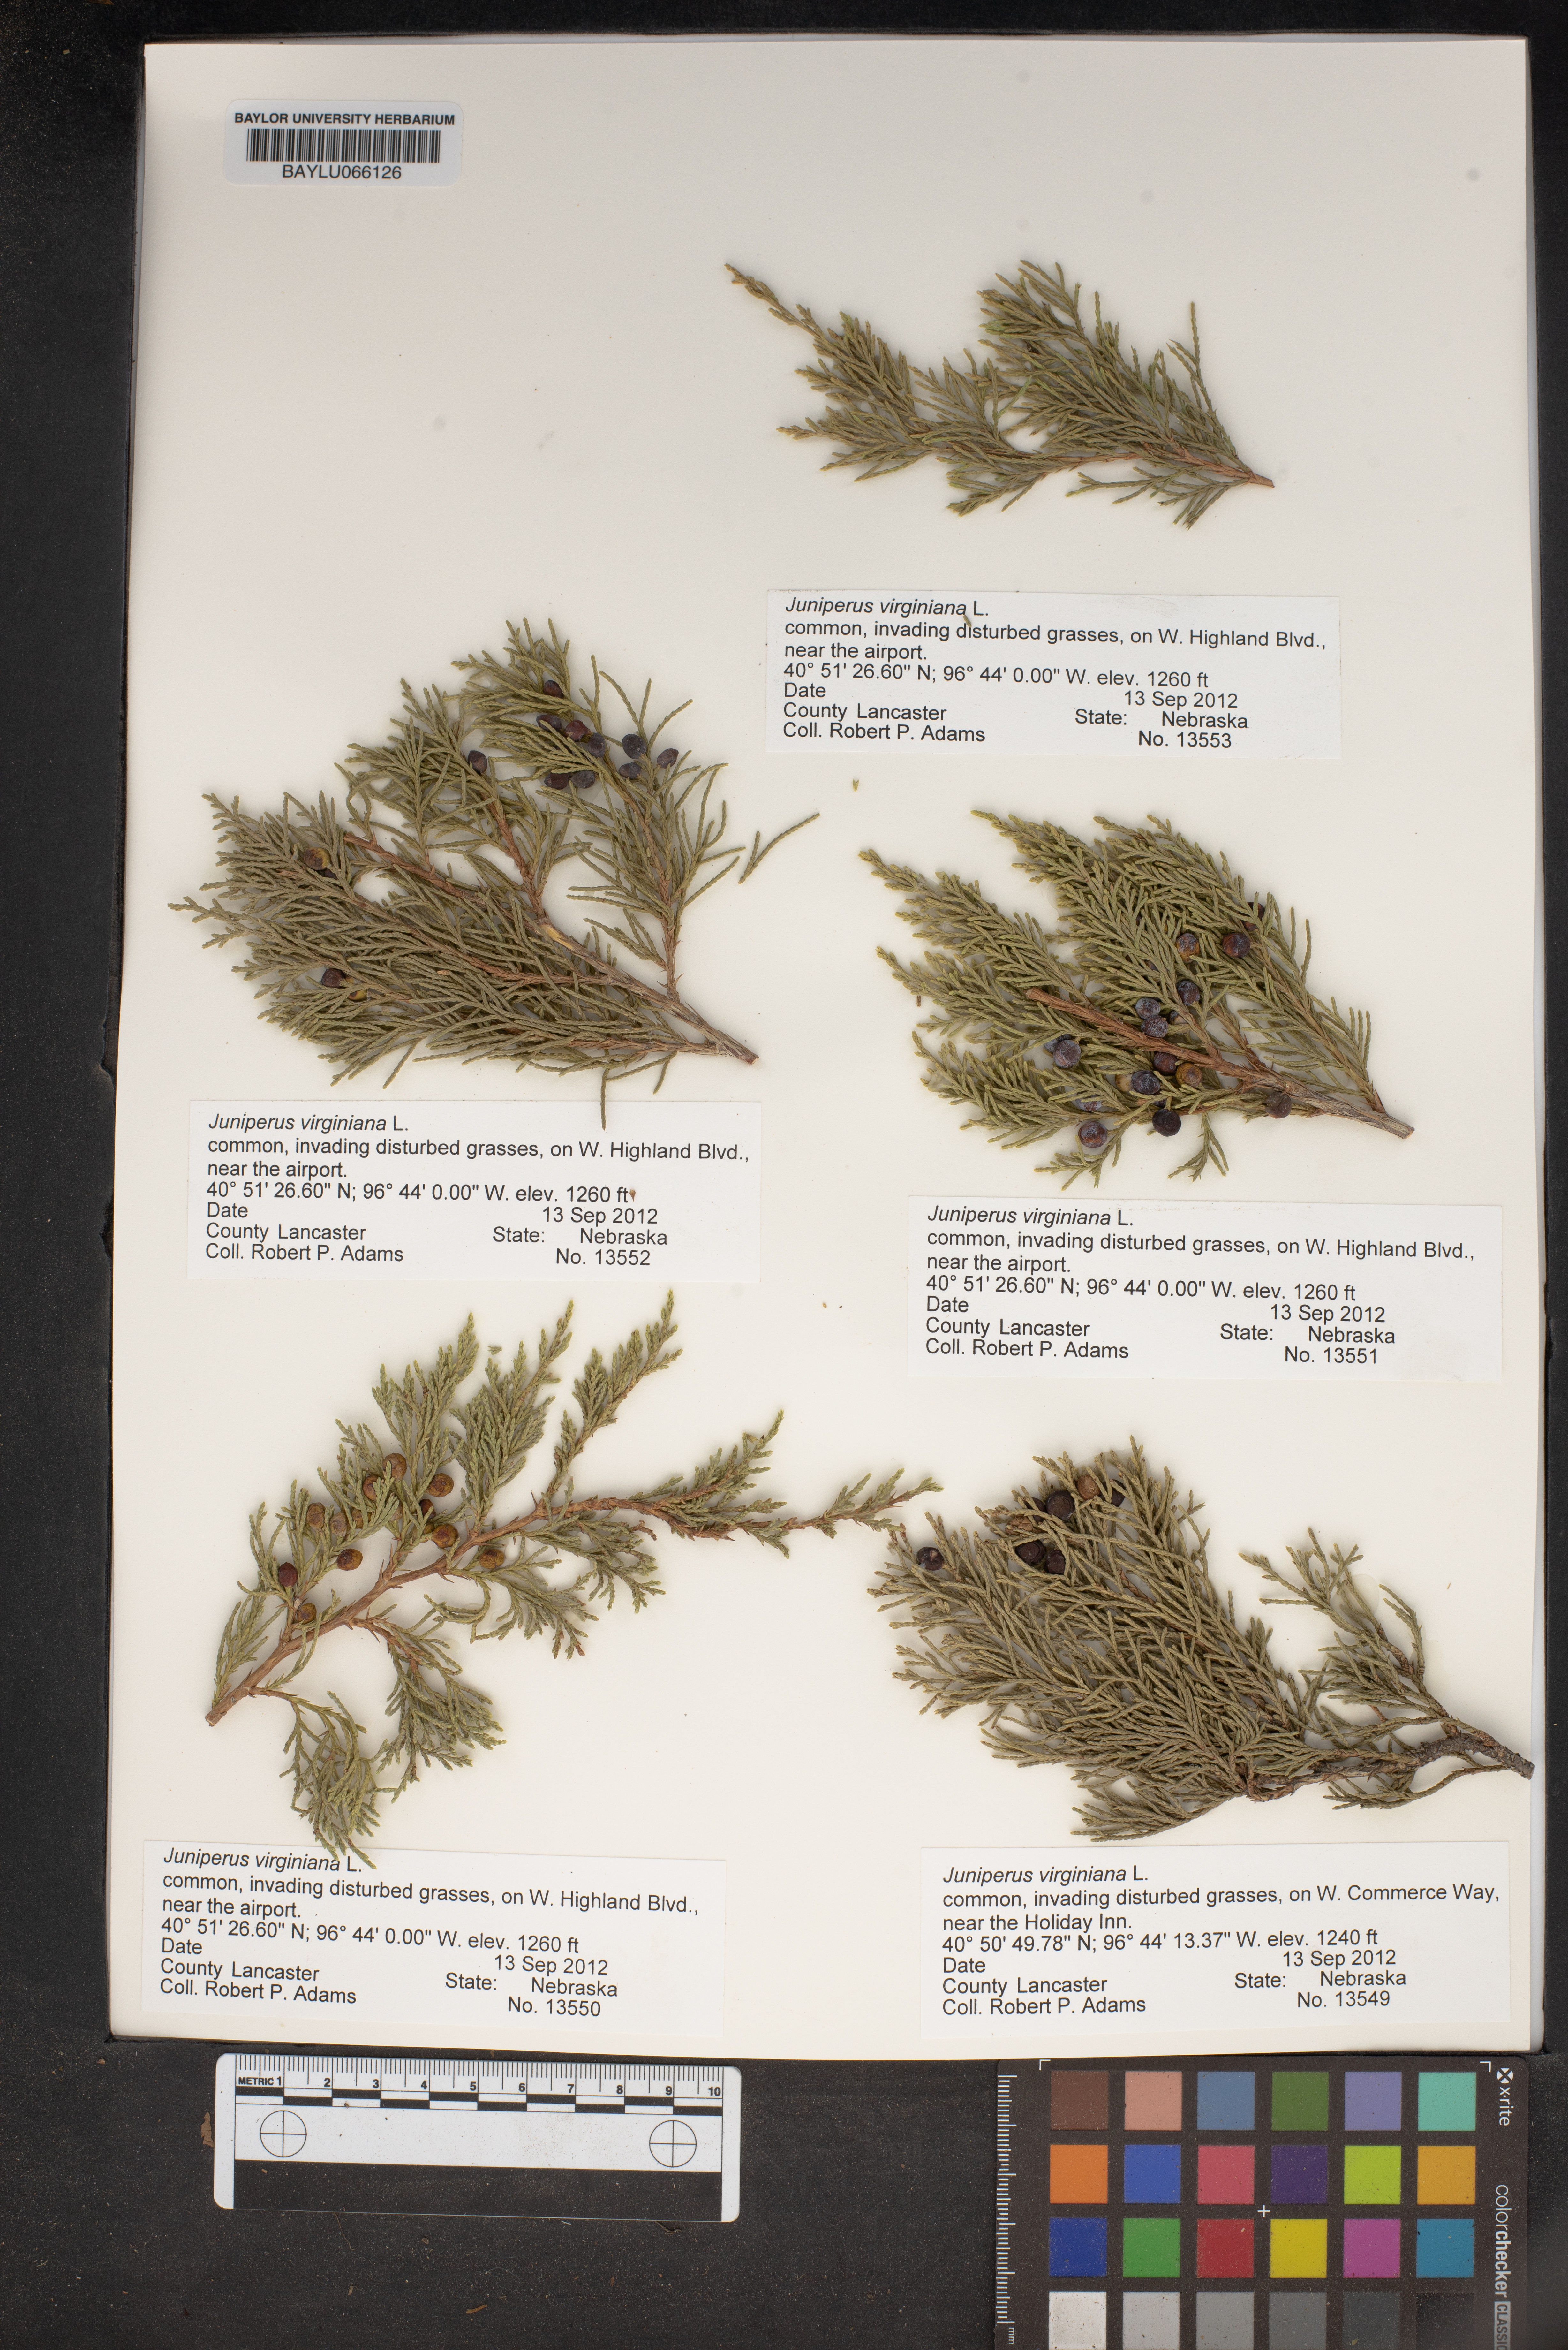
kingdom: Plantae
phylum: Tracheophyta
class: Pinopsida
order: Pinales
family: Cupressaceae
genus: Juniperus
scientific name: Juniperus virginiana
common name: Red juniper
